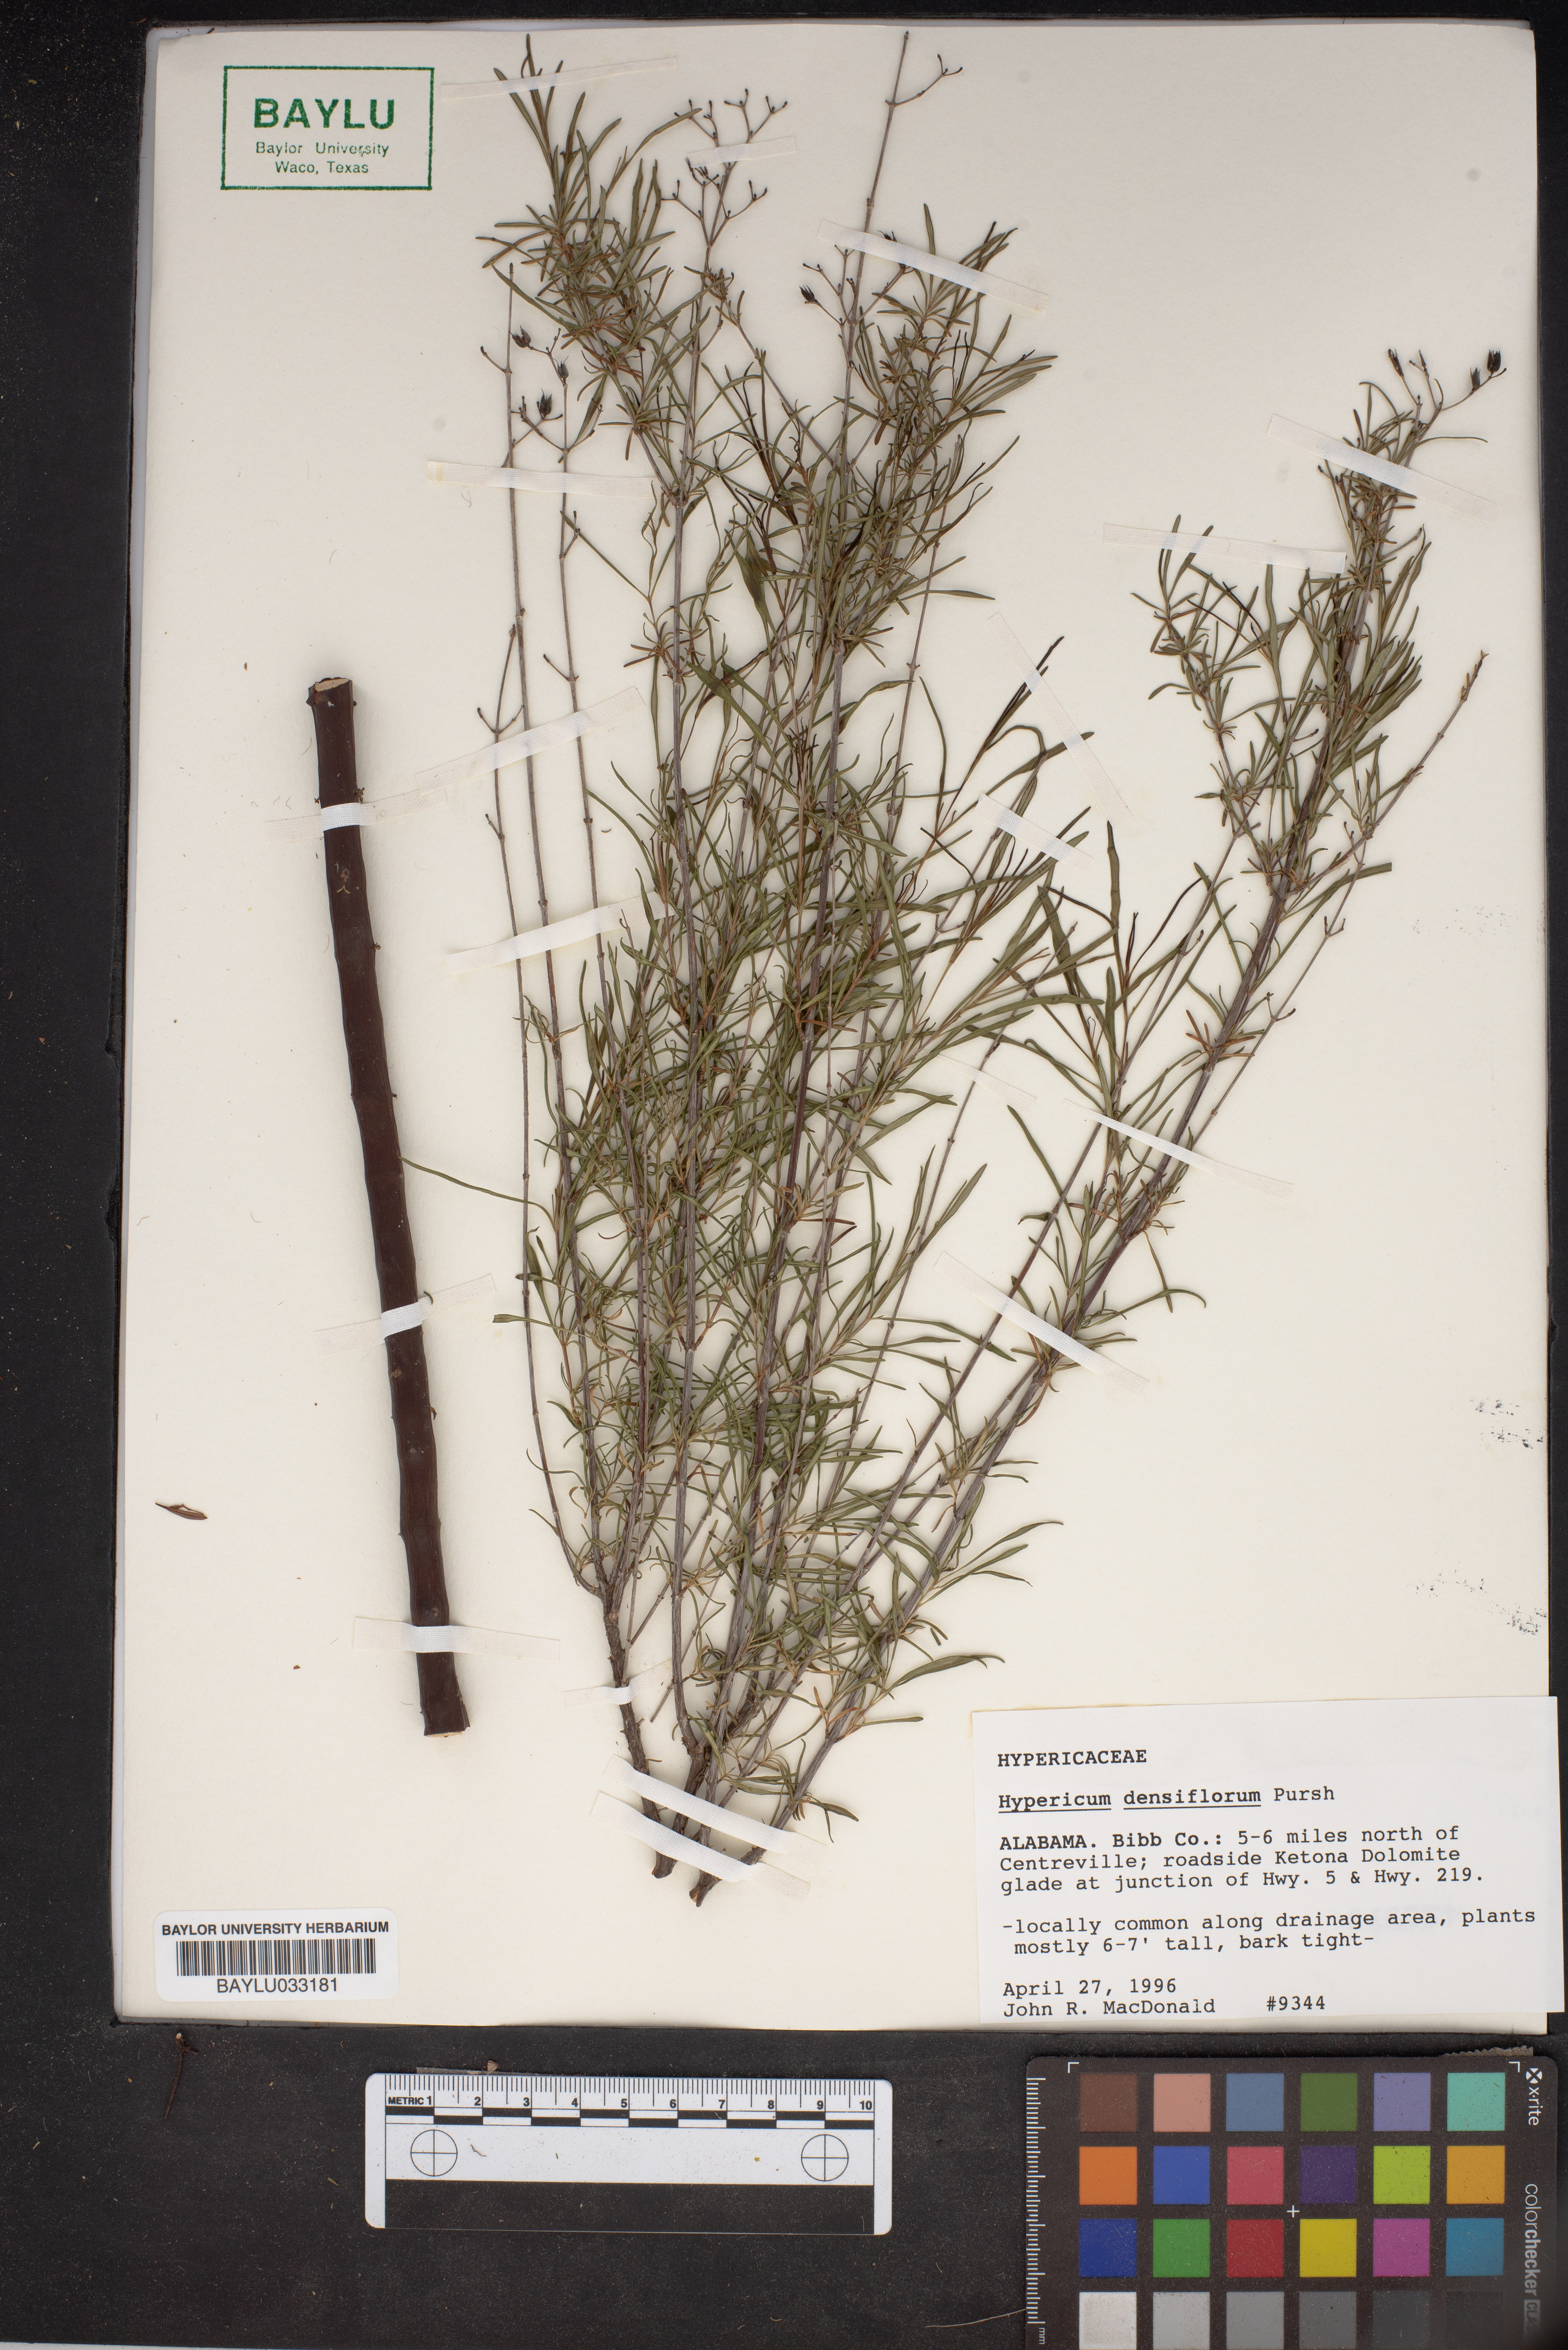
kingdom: Plantae
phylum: Tracheophyta
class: Magnoliopsida
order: Malpighiales
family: Hypericaceae
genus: Hypericum
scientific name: Hypericum densiflorum
